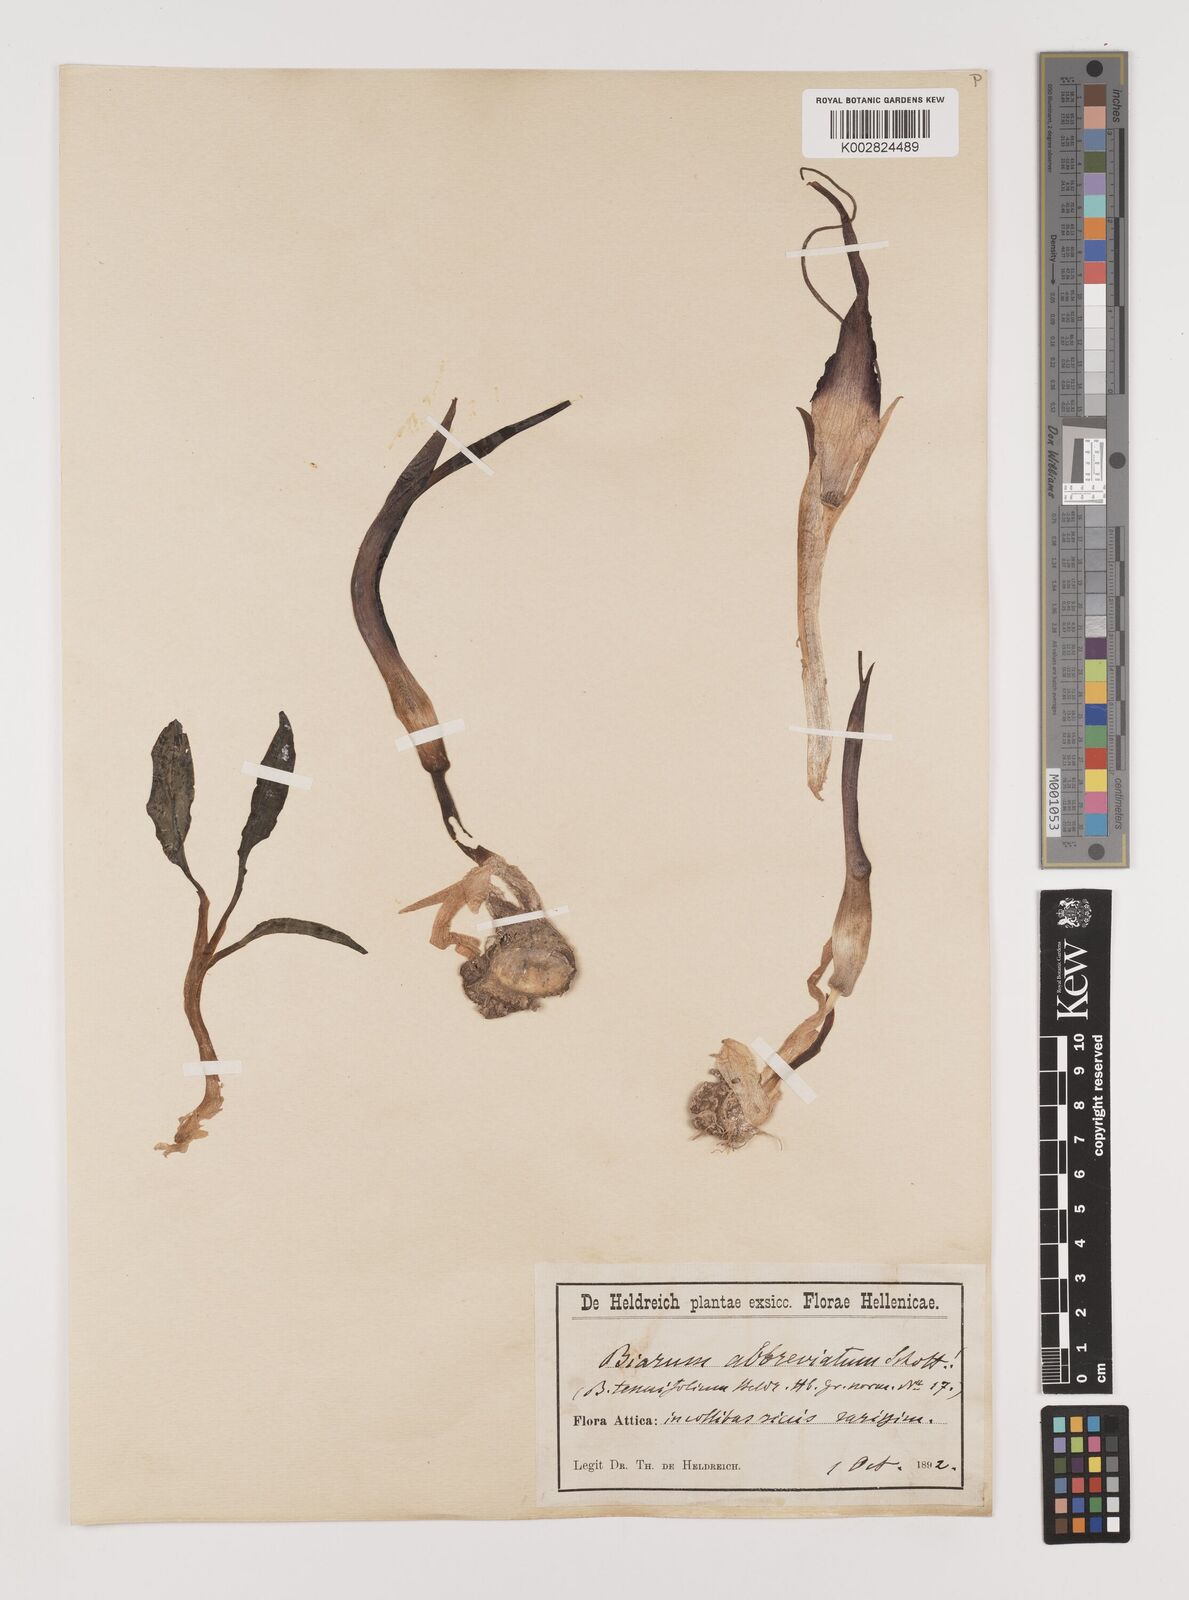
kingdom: Plantae
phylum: Tracheophyta
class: Liliopsida
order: Alismatales
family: Araceae
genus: Biarum
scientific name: Biarum tenuifolium
